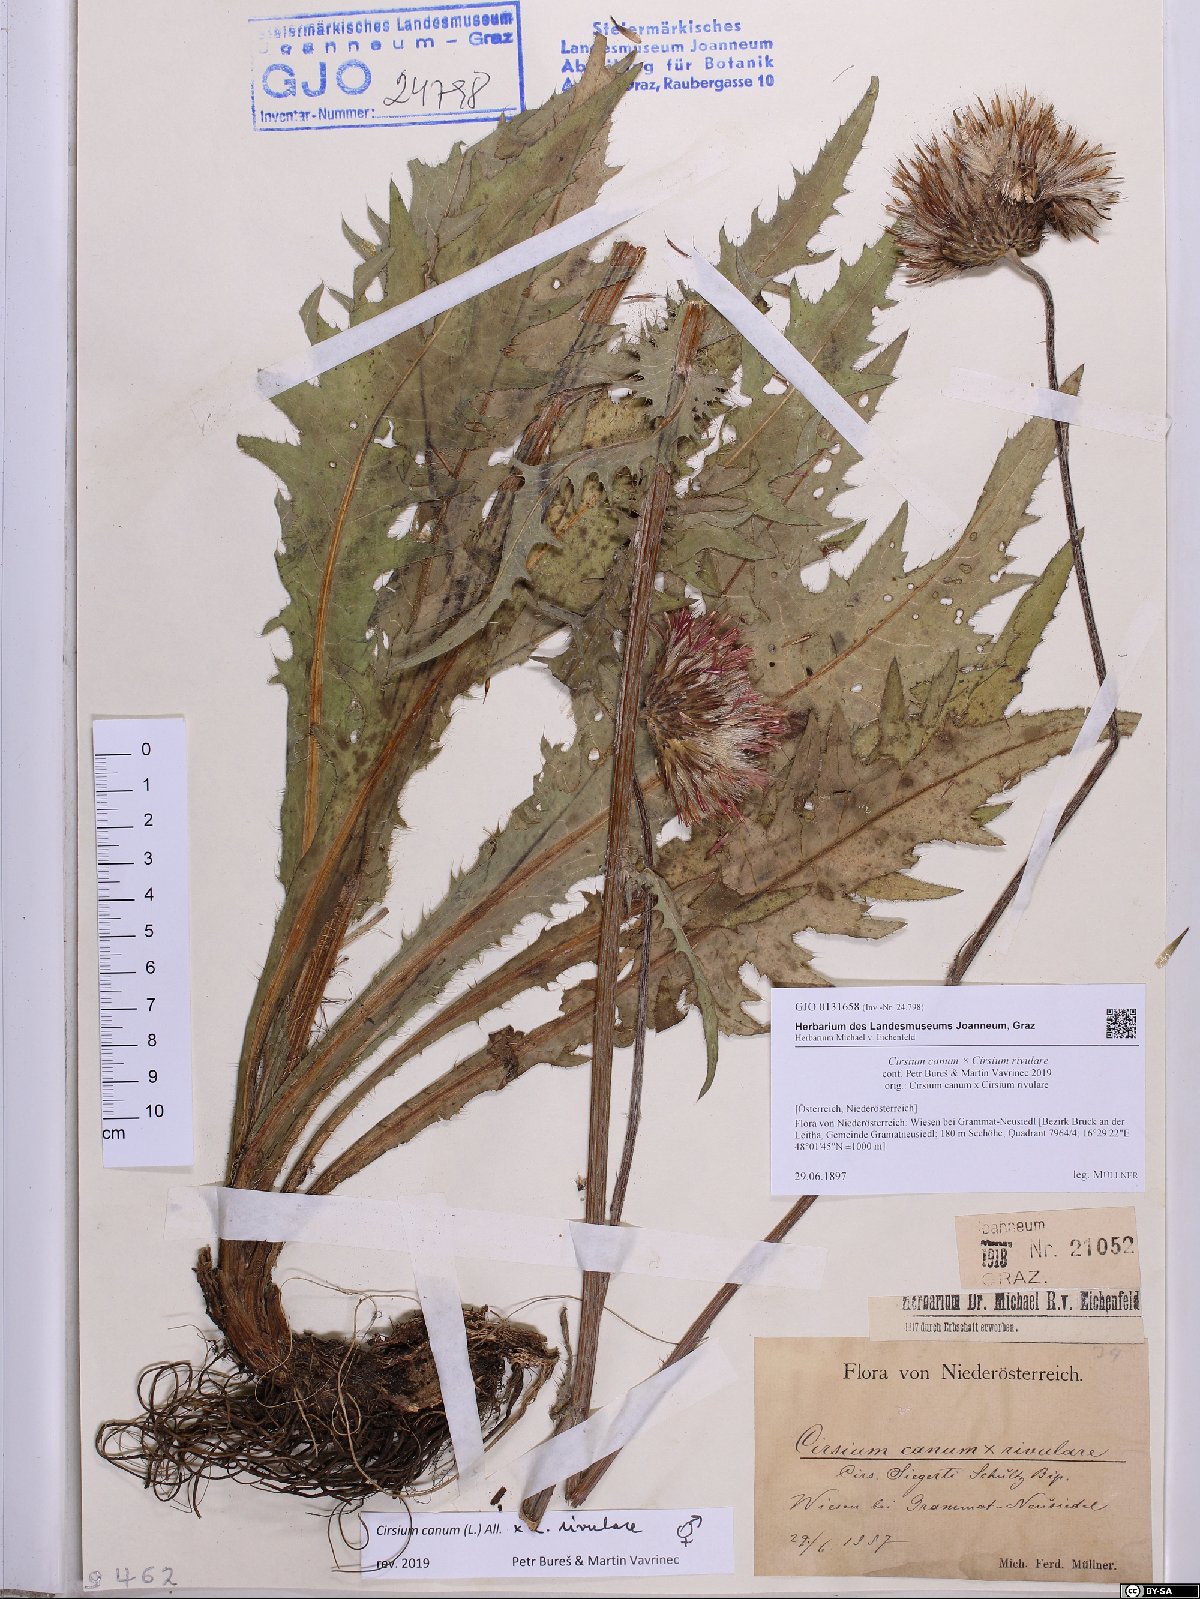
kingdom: Plantae
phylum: Tracheophyta
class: Magnoliopsida
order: Asterales
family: Asteraceae
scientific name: Asteraceae
